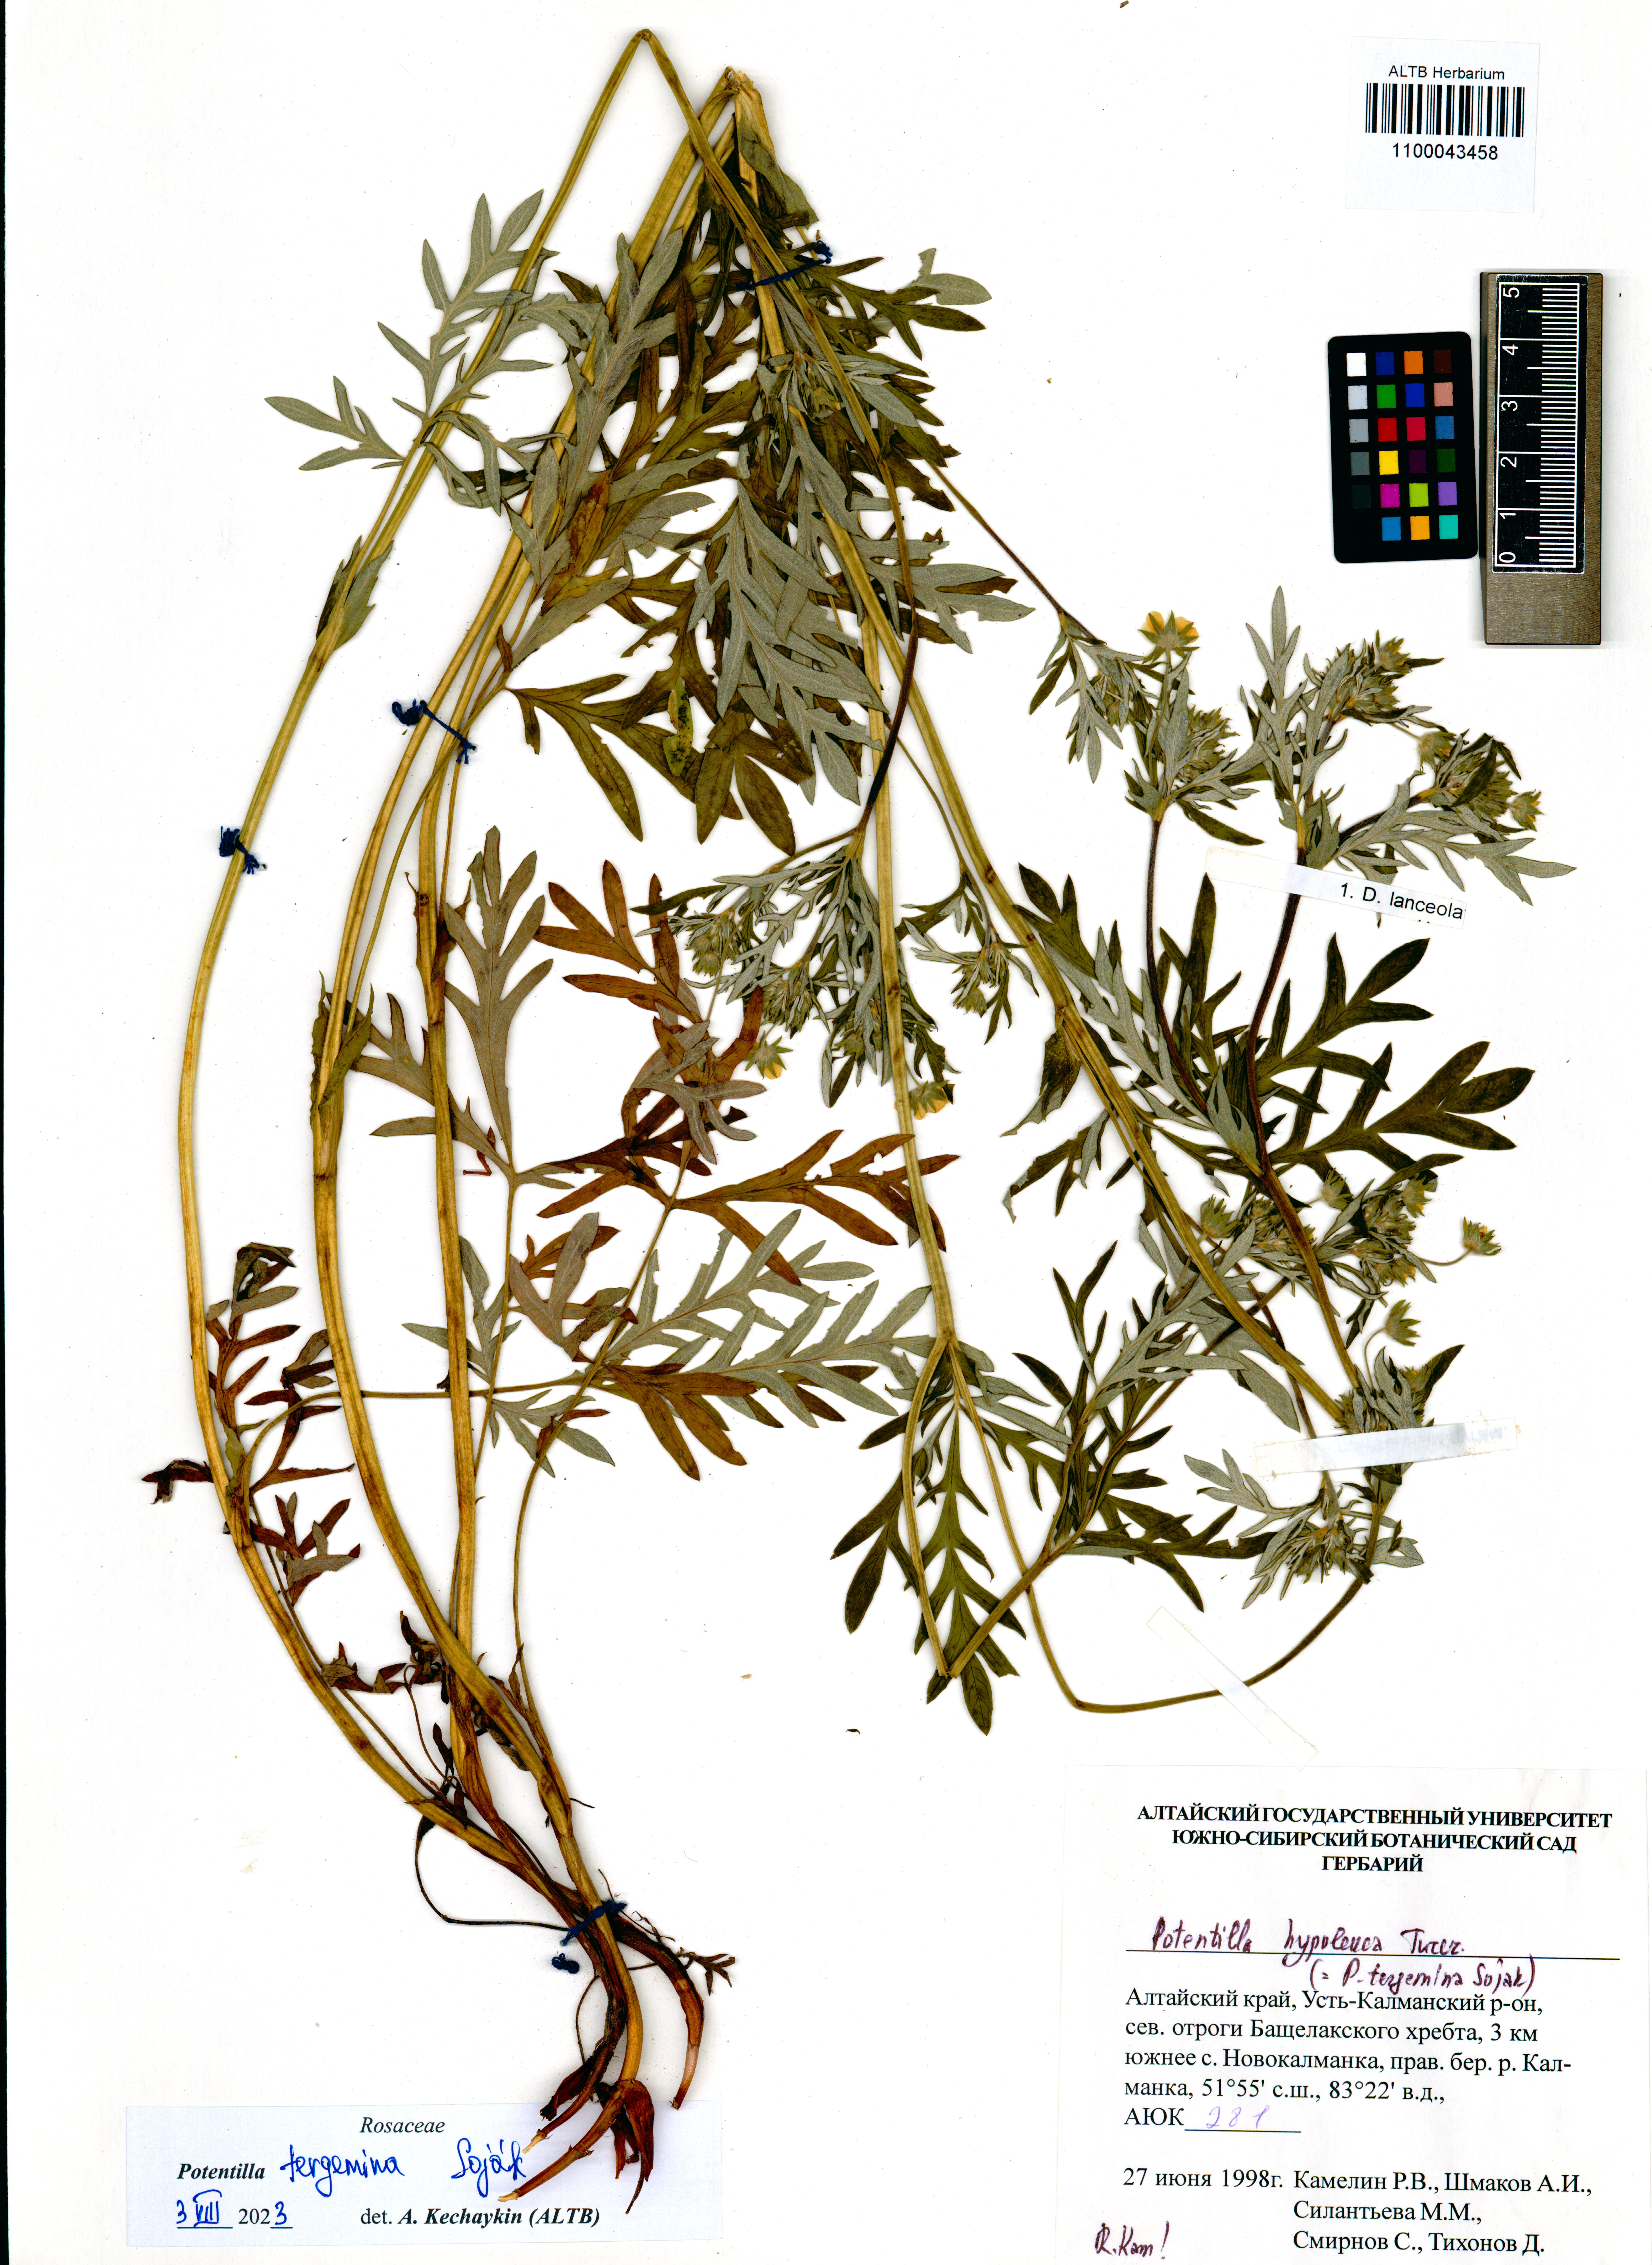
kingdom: Plantae
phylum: Tracheophyta
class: Magnoliopsida
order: Rosales
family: Rosaceae
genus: Potentilla
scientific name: Potentilla tergemina
